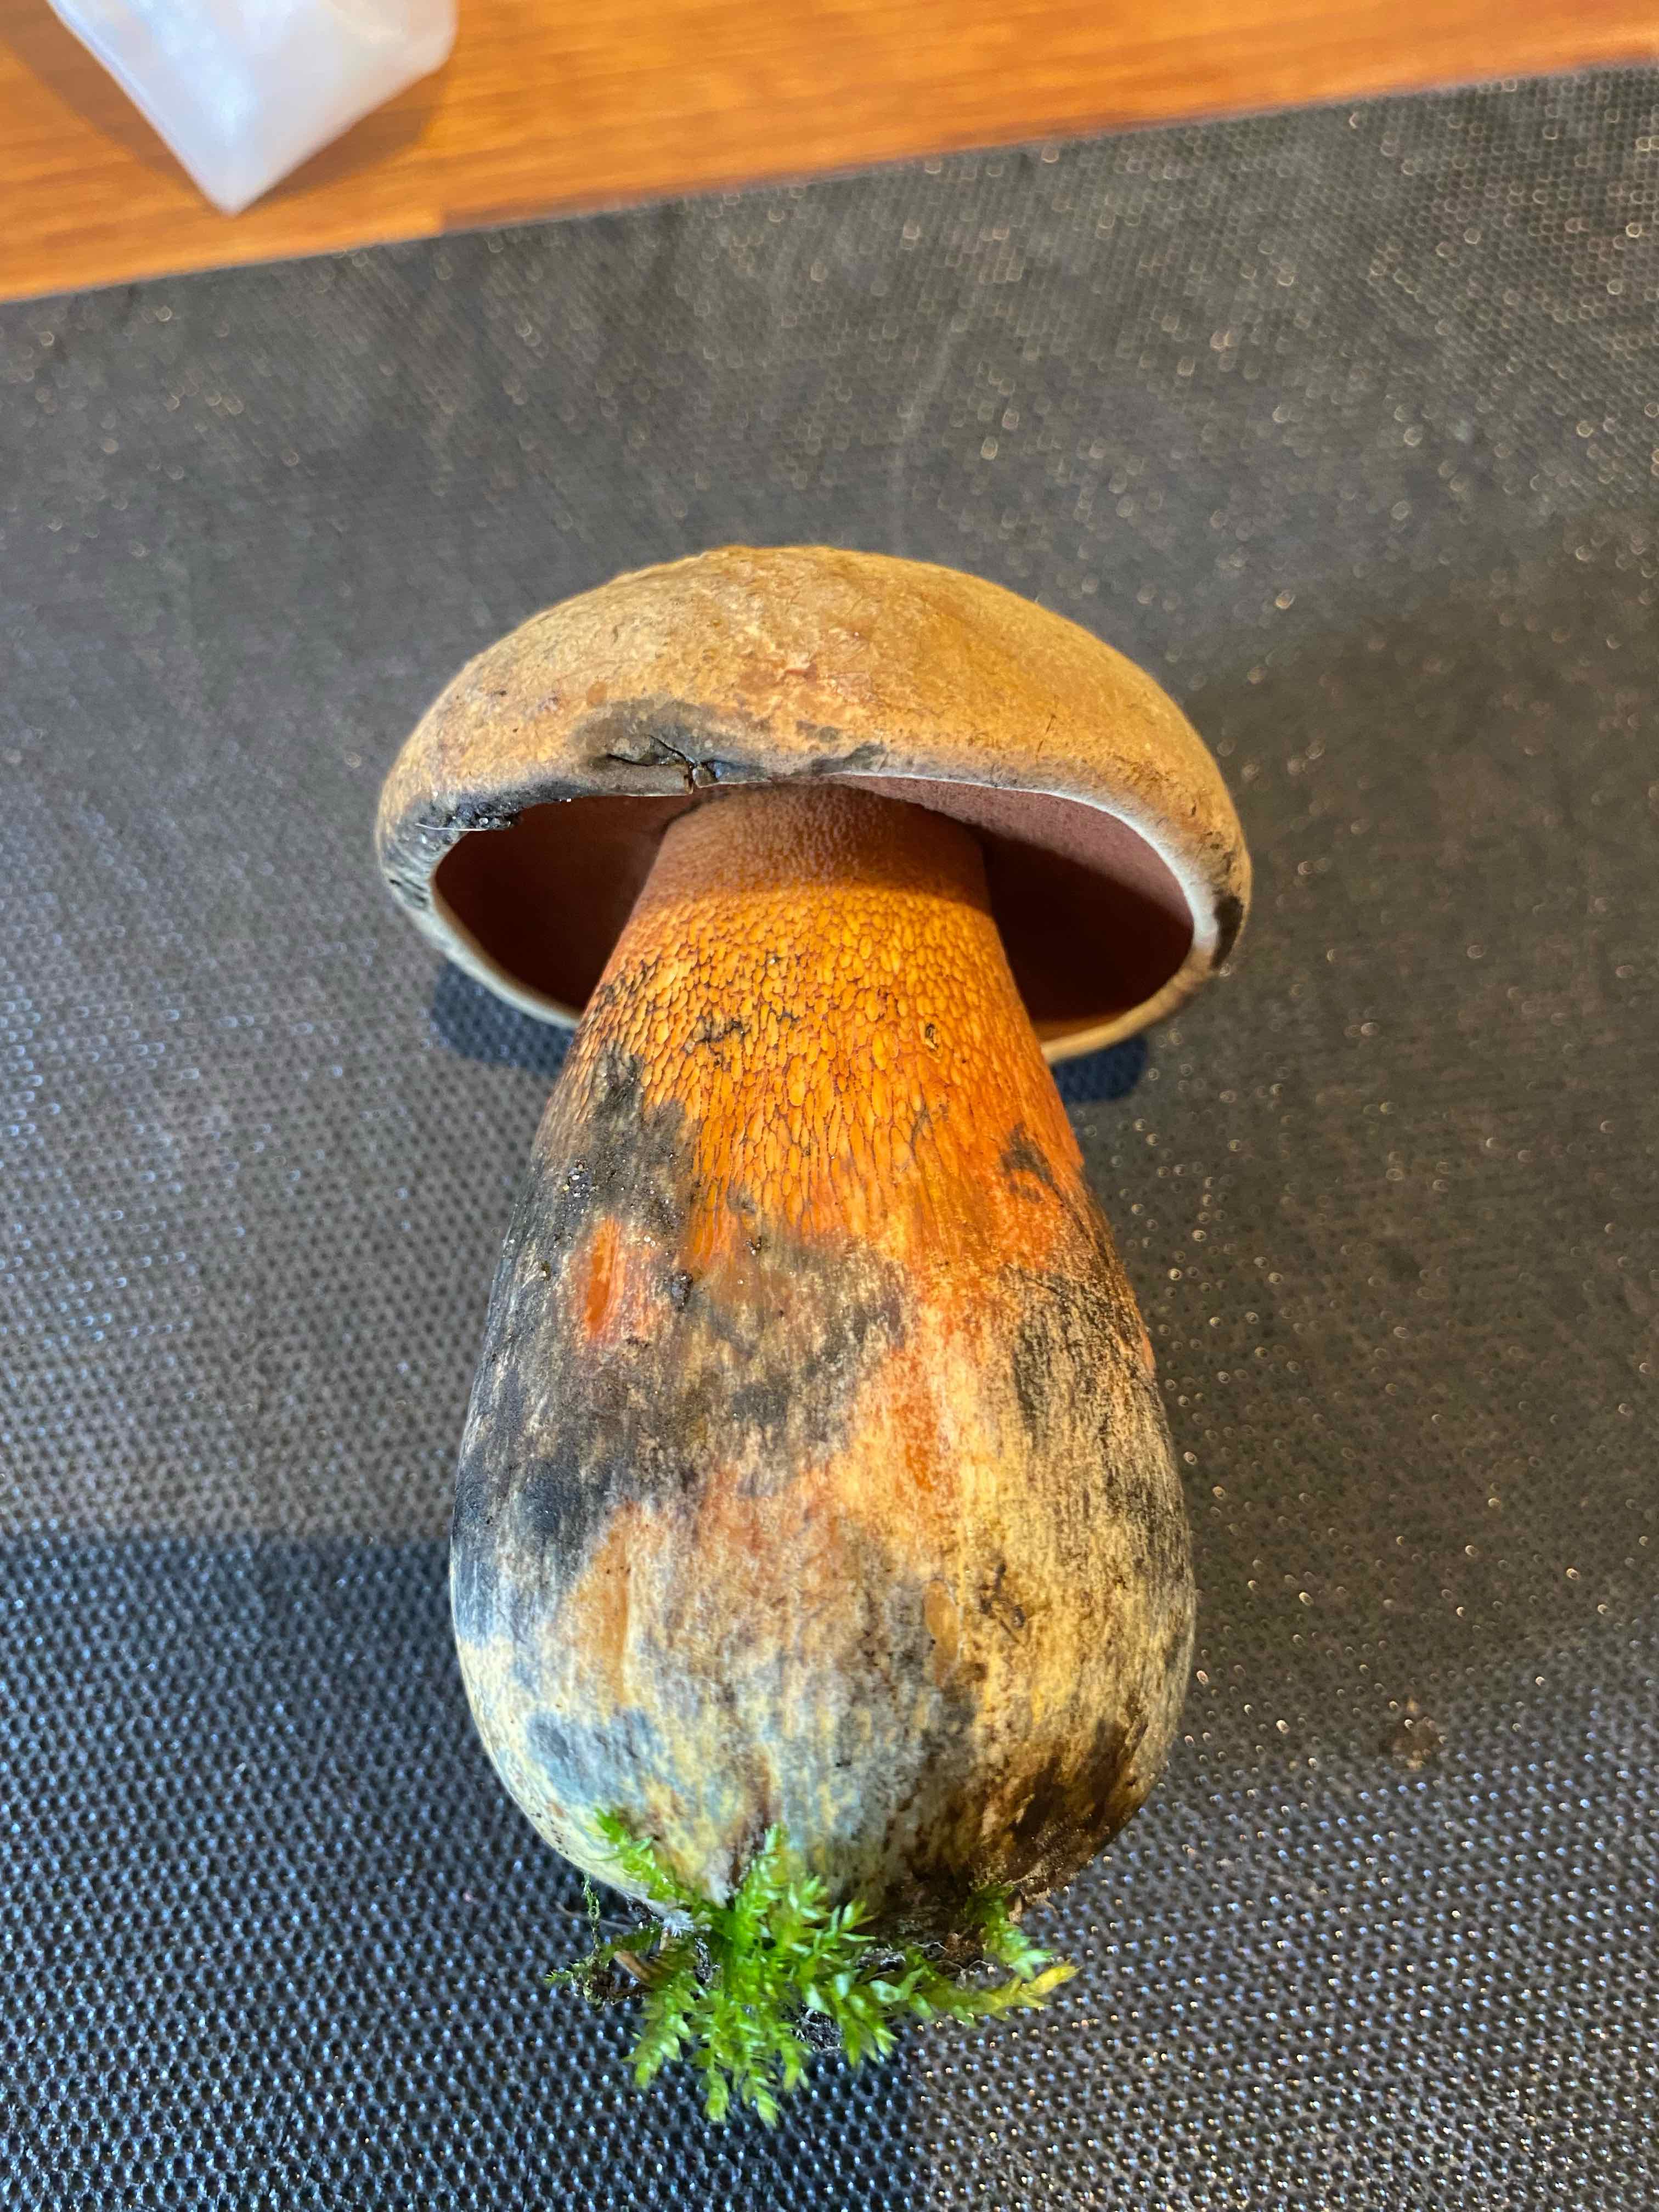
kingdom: Fungi
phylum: Basidiomycota
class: Agaricomycetes
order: Boletales
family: Boletaceae
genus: Suillellus
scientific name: Suillellus luridus
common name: netstokket indigorørhat
